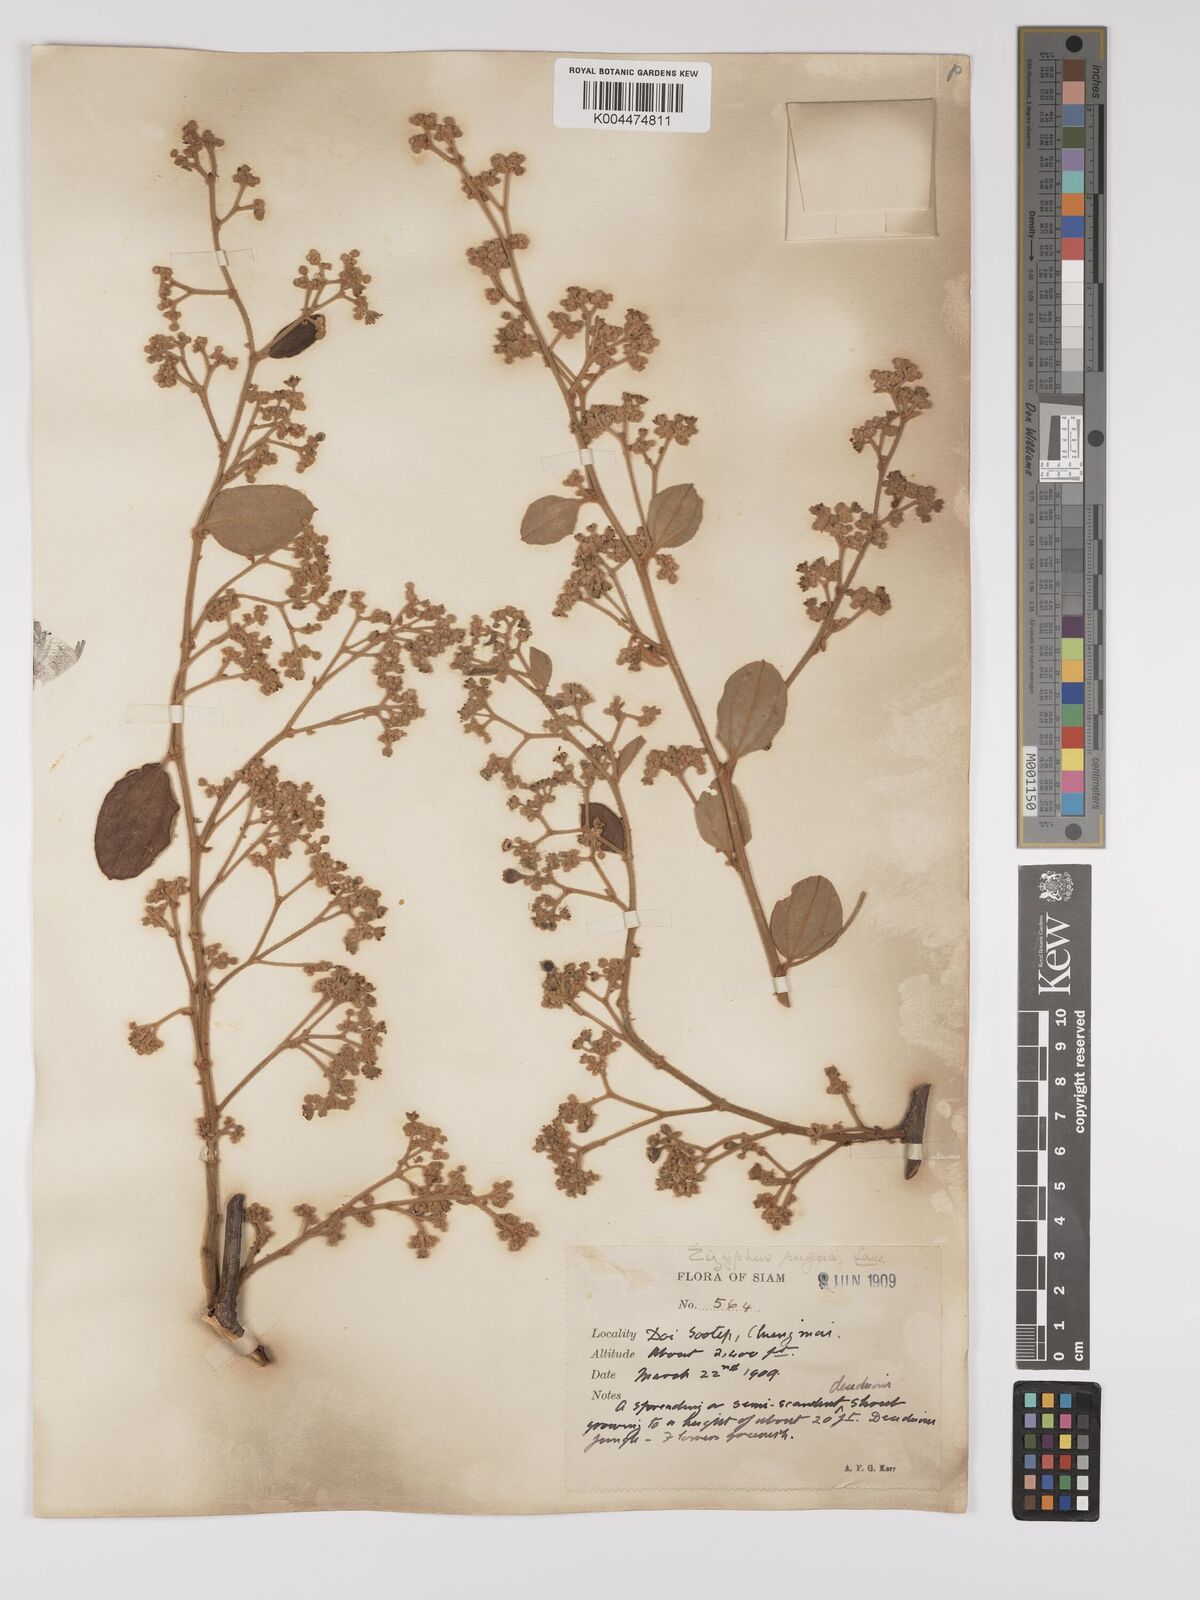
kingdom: Plantae
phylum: Tracheophyta
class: Magnoliopsida
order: Rosales
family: Rhamnaceae
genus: Ziziphus
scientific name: Ziziphus rugosa
